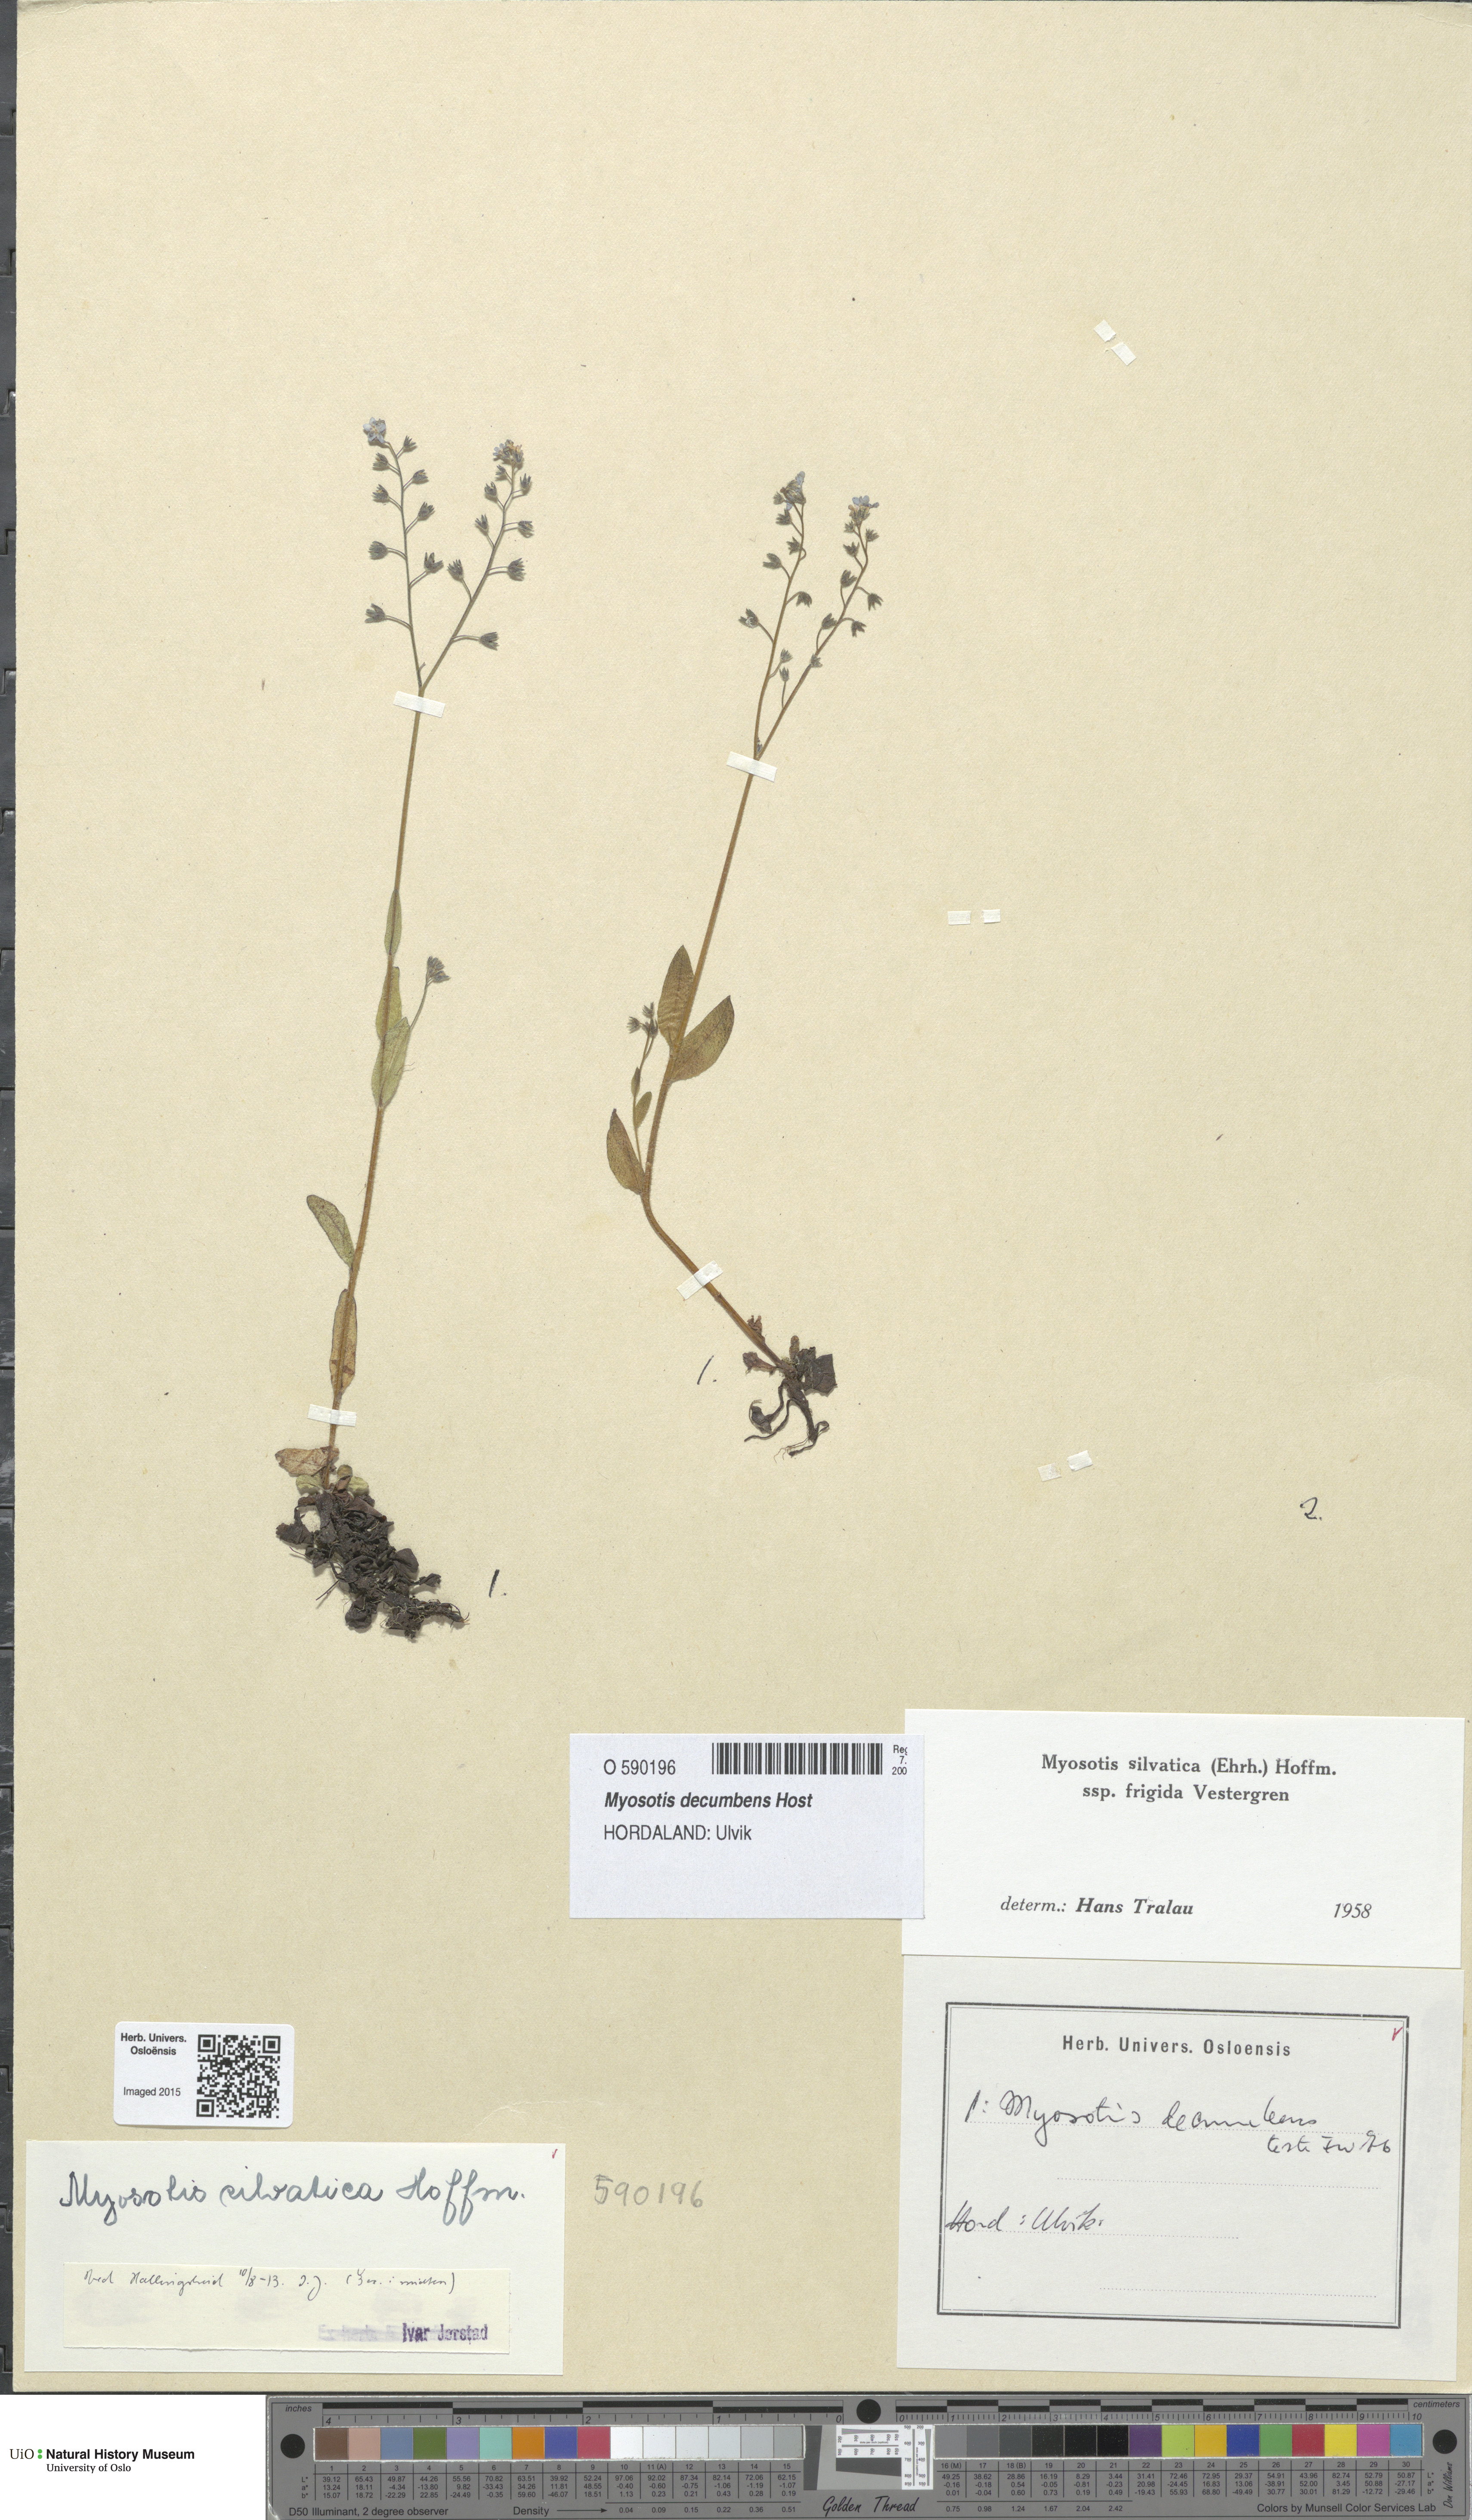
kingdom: Plantae
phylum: Tracheophyta
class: Magnoliopsida
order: Boraginales
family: Boraginaceae
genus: Myosotis
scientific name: Myosotis decumbens
